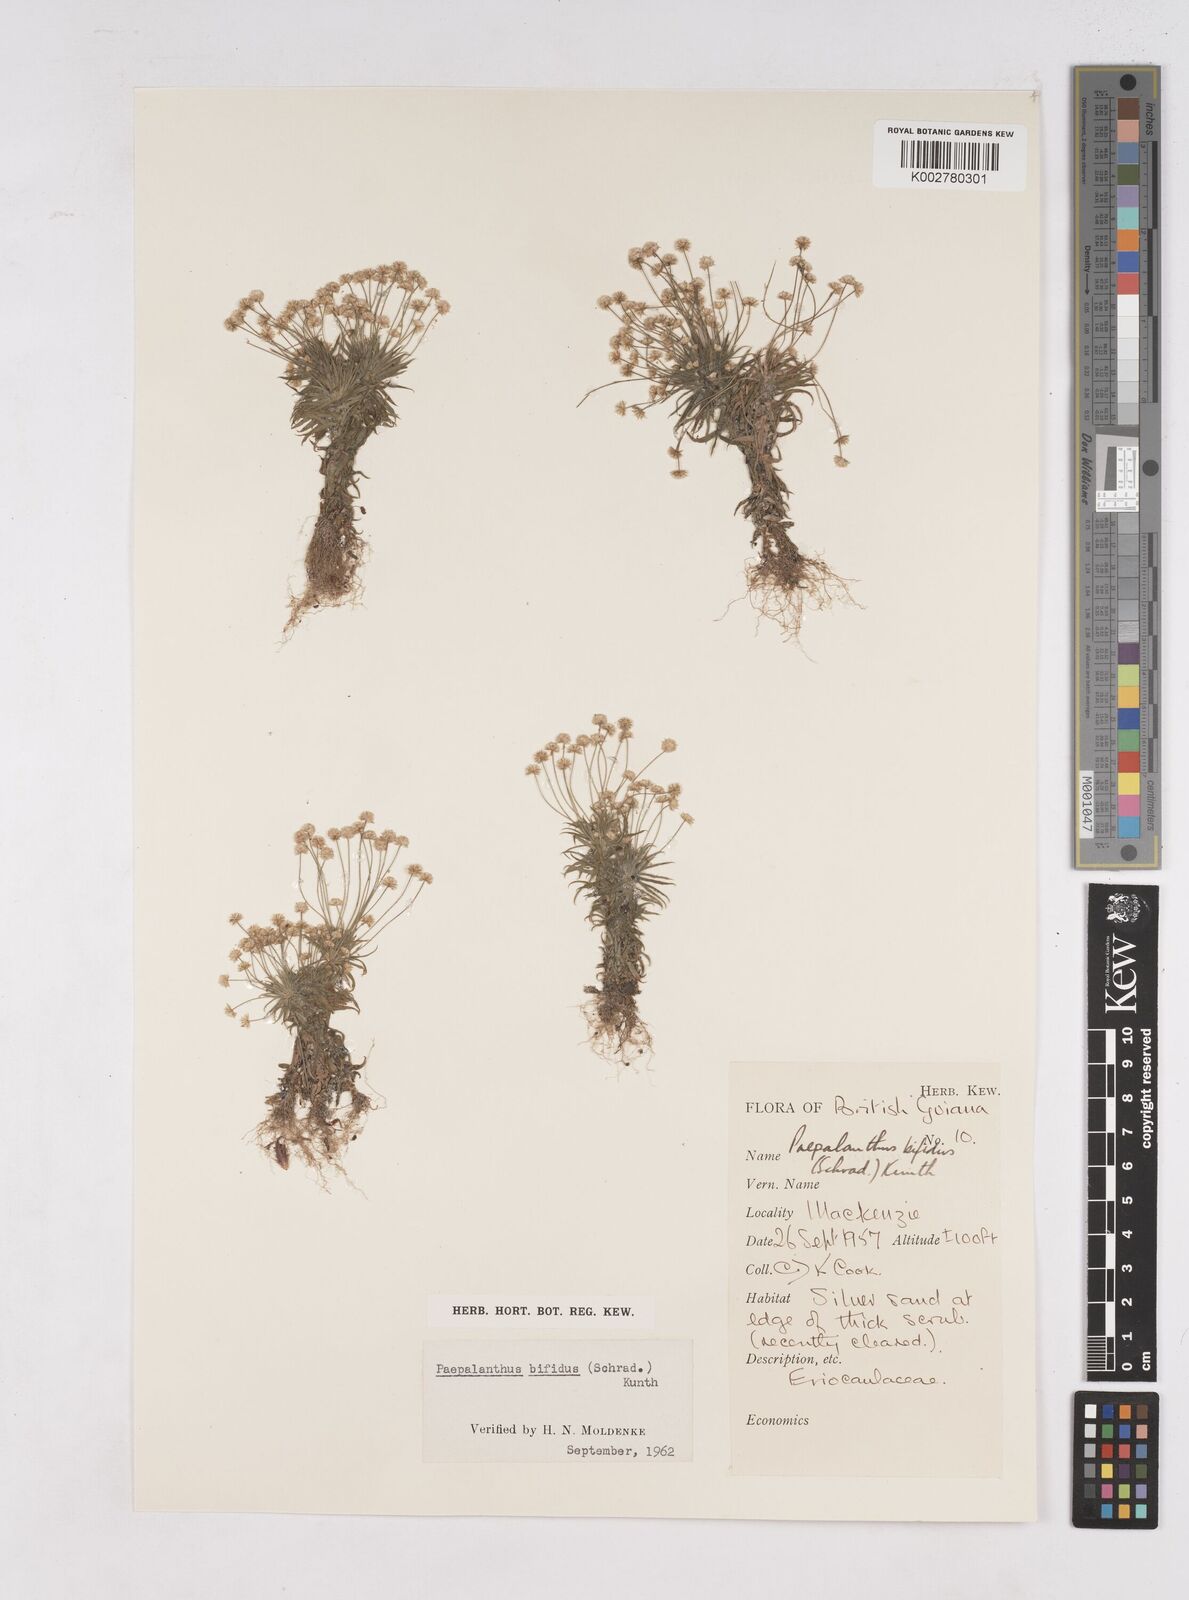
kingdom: Plantae
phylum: Tracheophyta
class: Liliopsida
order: Poales
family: Eriocaulaceae
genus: Paepalanthus
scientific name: Paepalanthus bifidus
